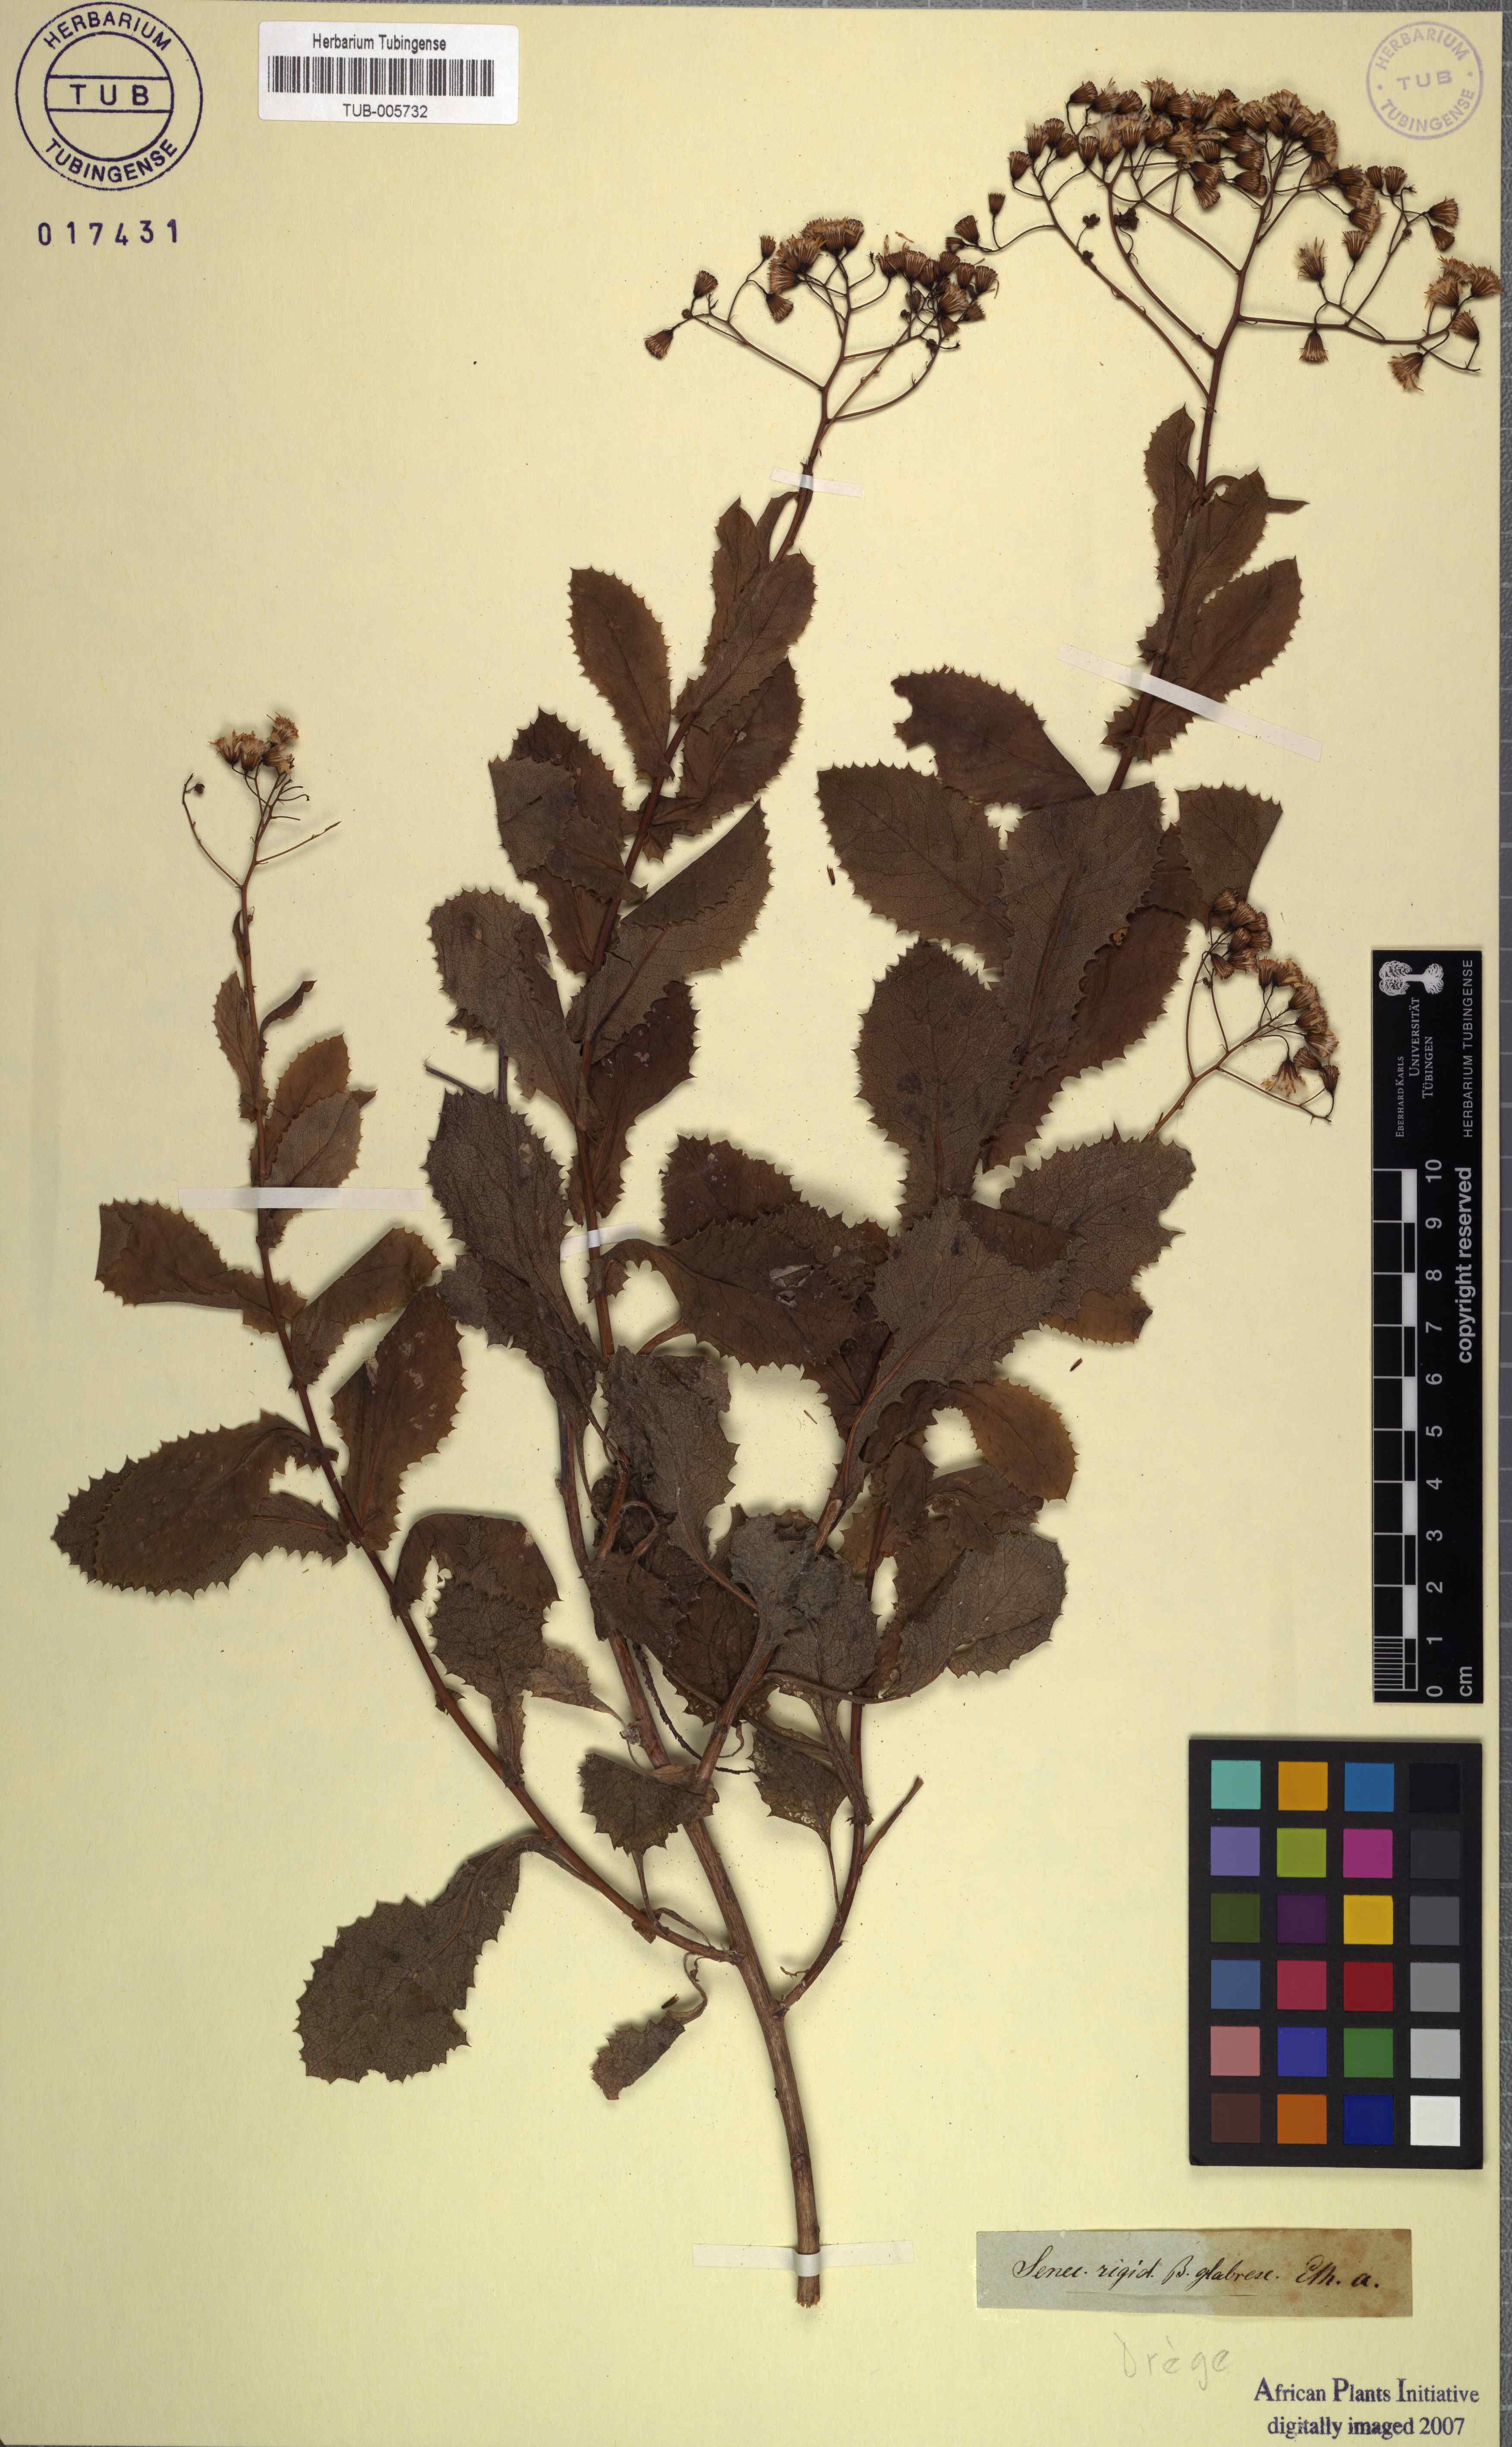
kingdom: Plantae
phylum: Tracheophyta
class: Magnoliopsida
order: Asterales
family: Asteraceae
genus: Senecio
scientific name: Senecio rigidus
